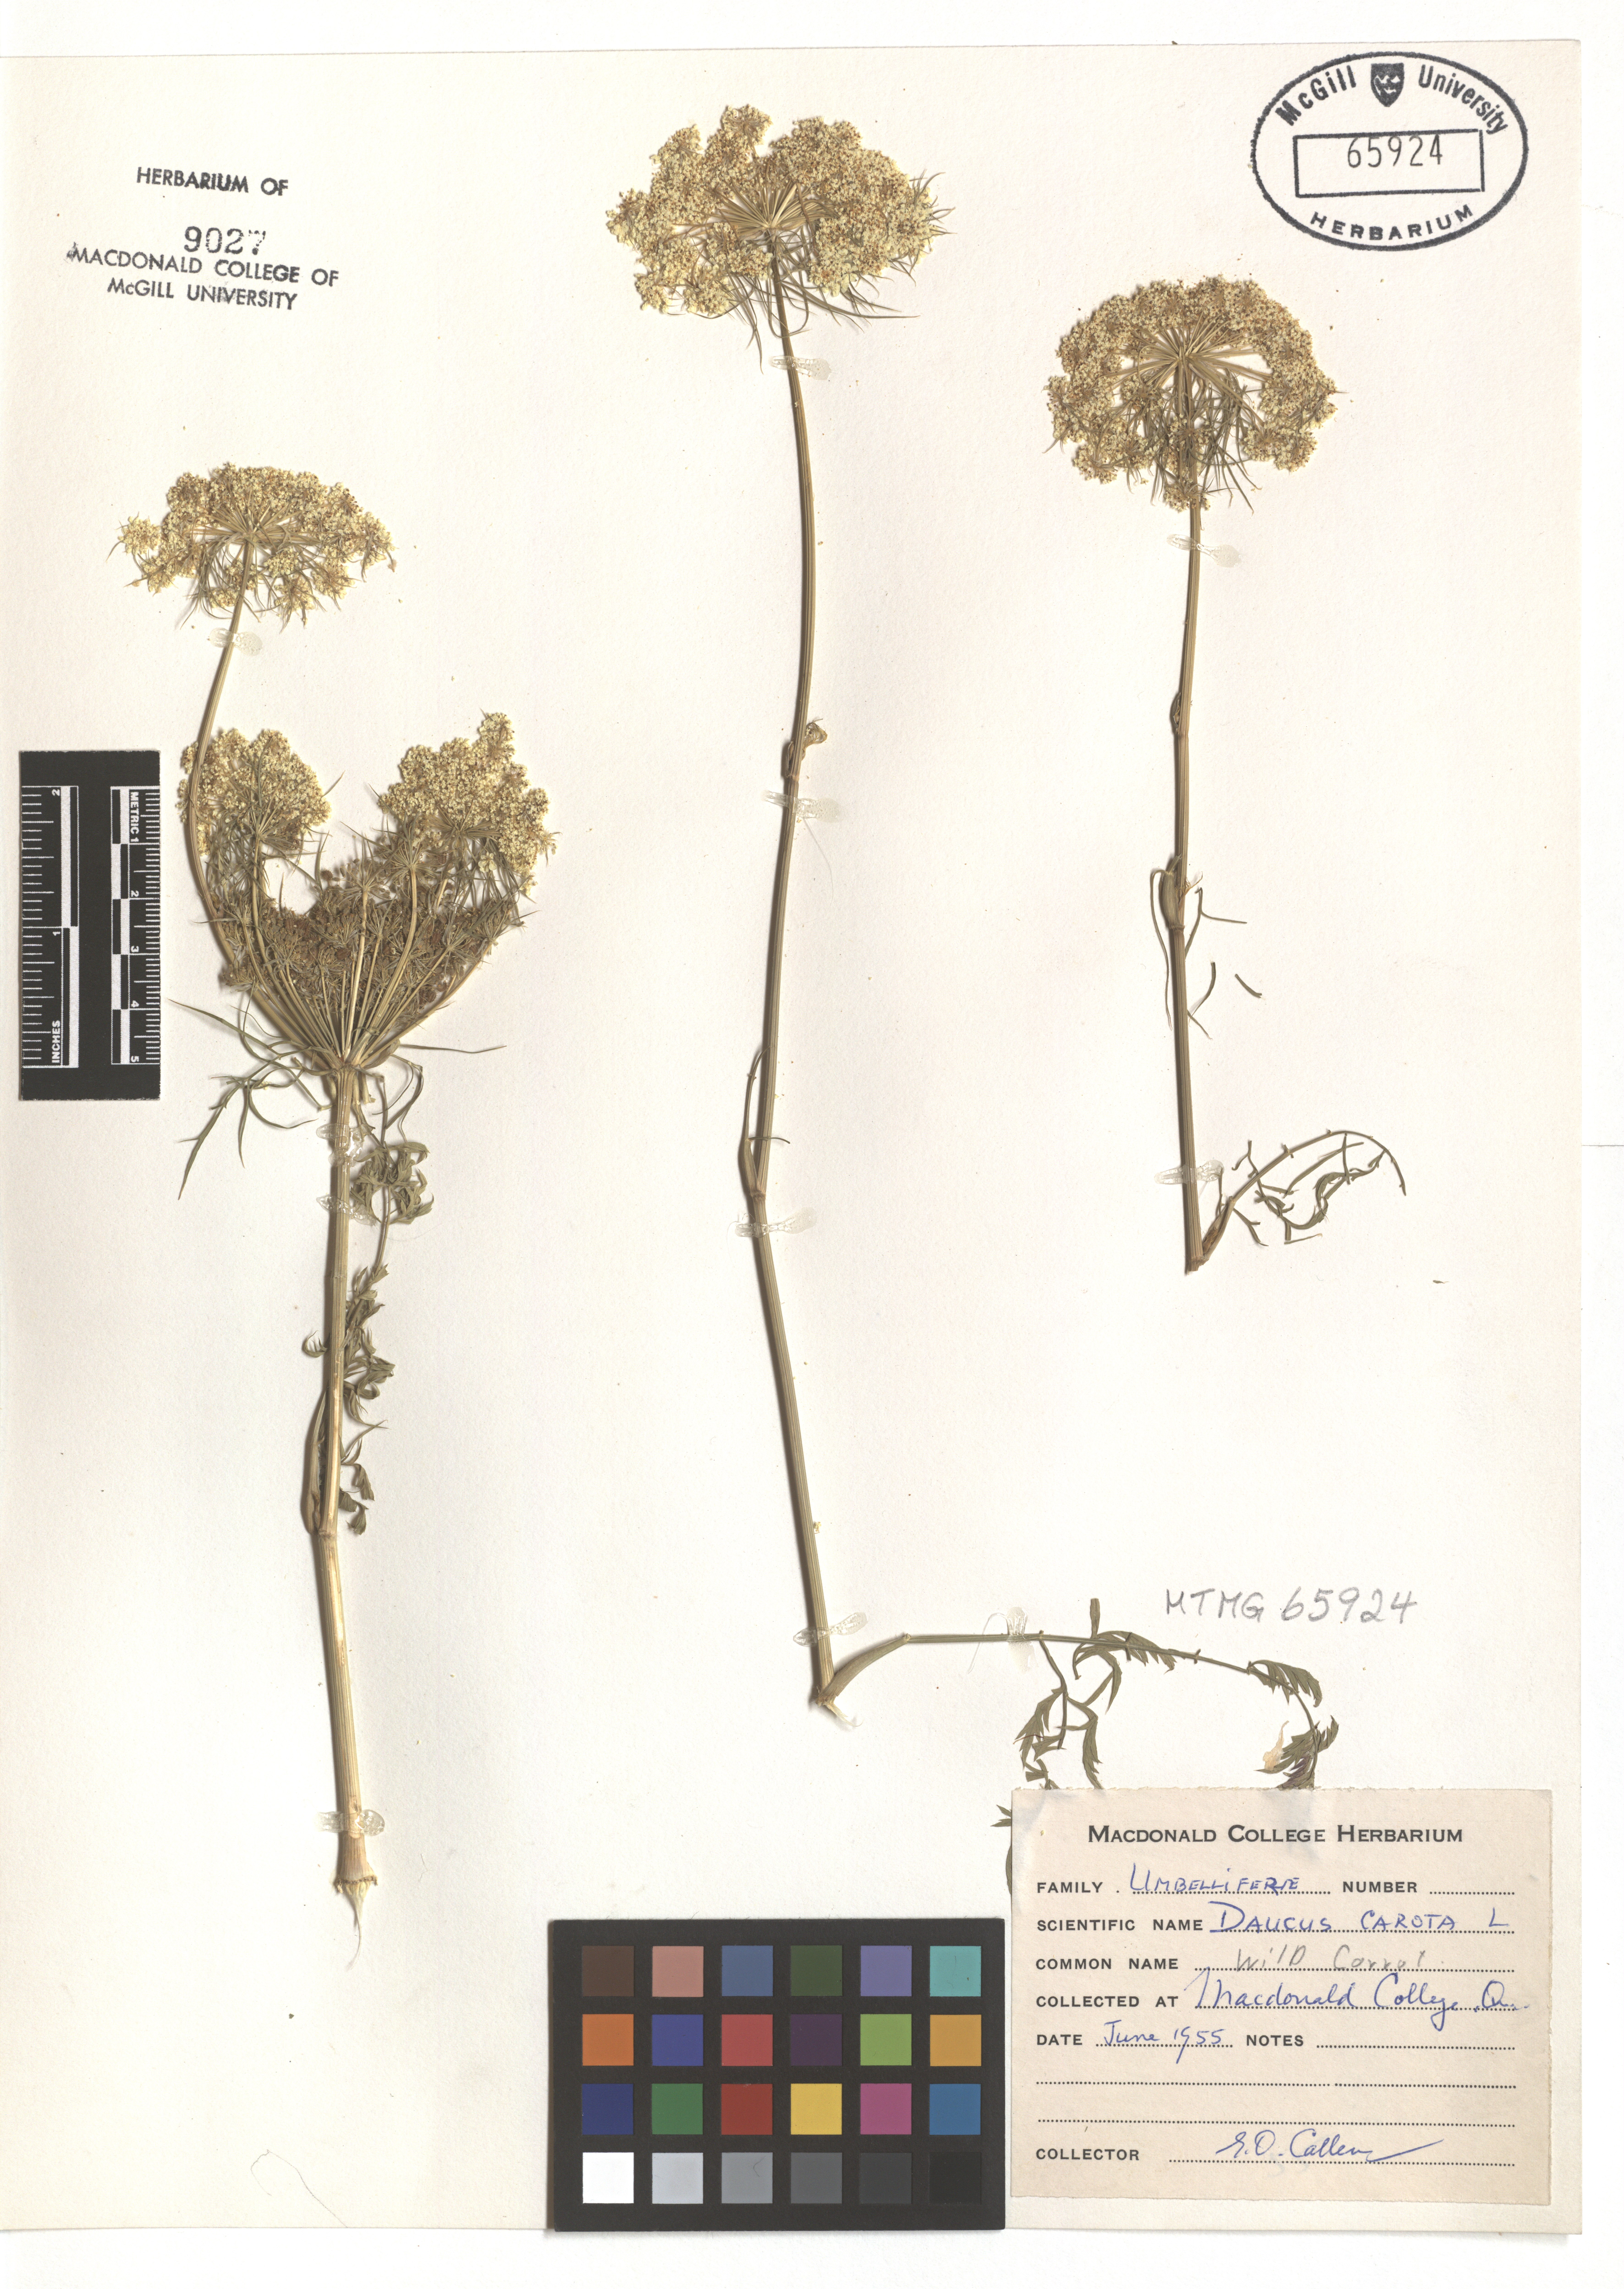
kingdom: Plantae
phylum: Tracheophyta
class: Magnoliopsida
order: Apiales
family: Apiaceae
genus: Daucus
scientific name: Daucus carota
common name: Wild carrot
